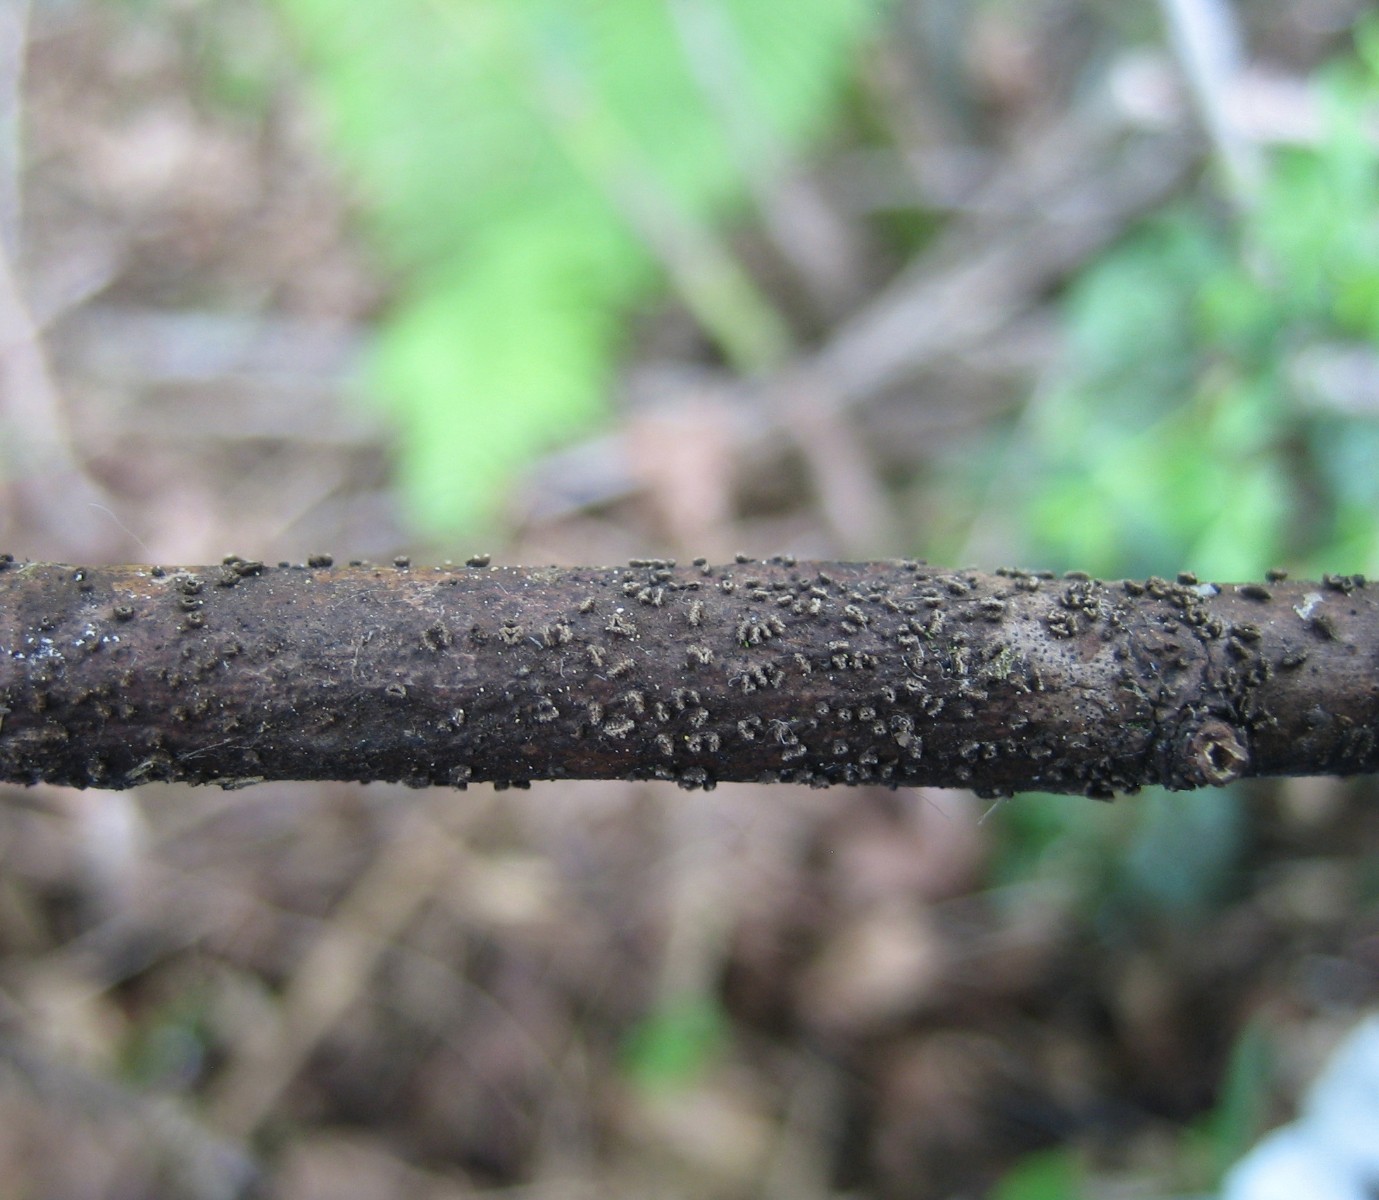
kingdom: Fungi
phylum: Ascomycota
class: Leotiomycetes
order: Helotiales
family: Dermateaceae
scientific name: Dermateaceae
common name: gråskivefamilien
